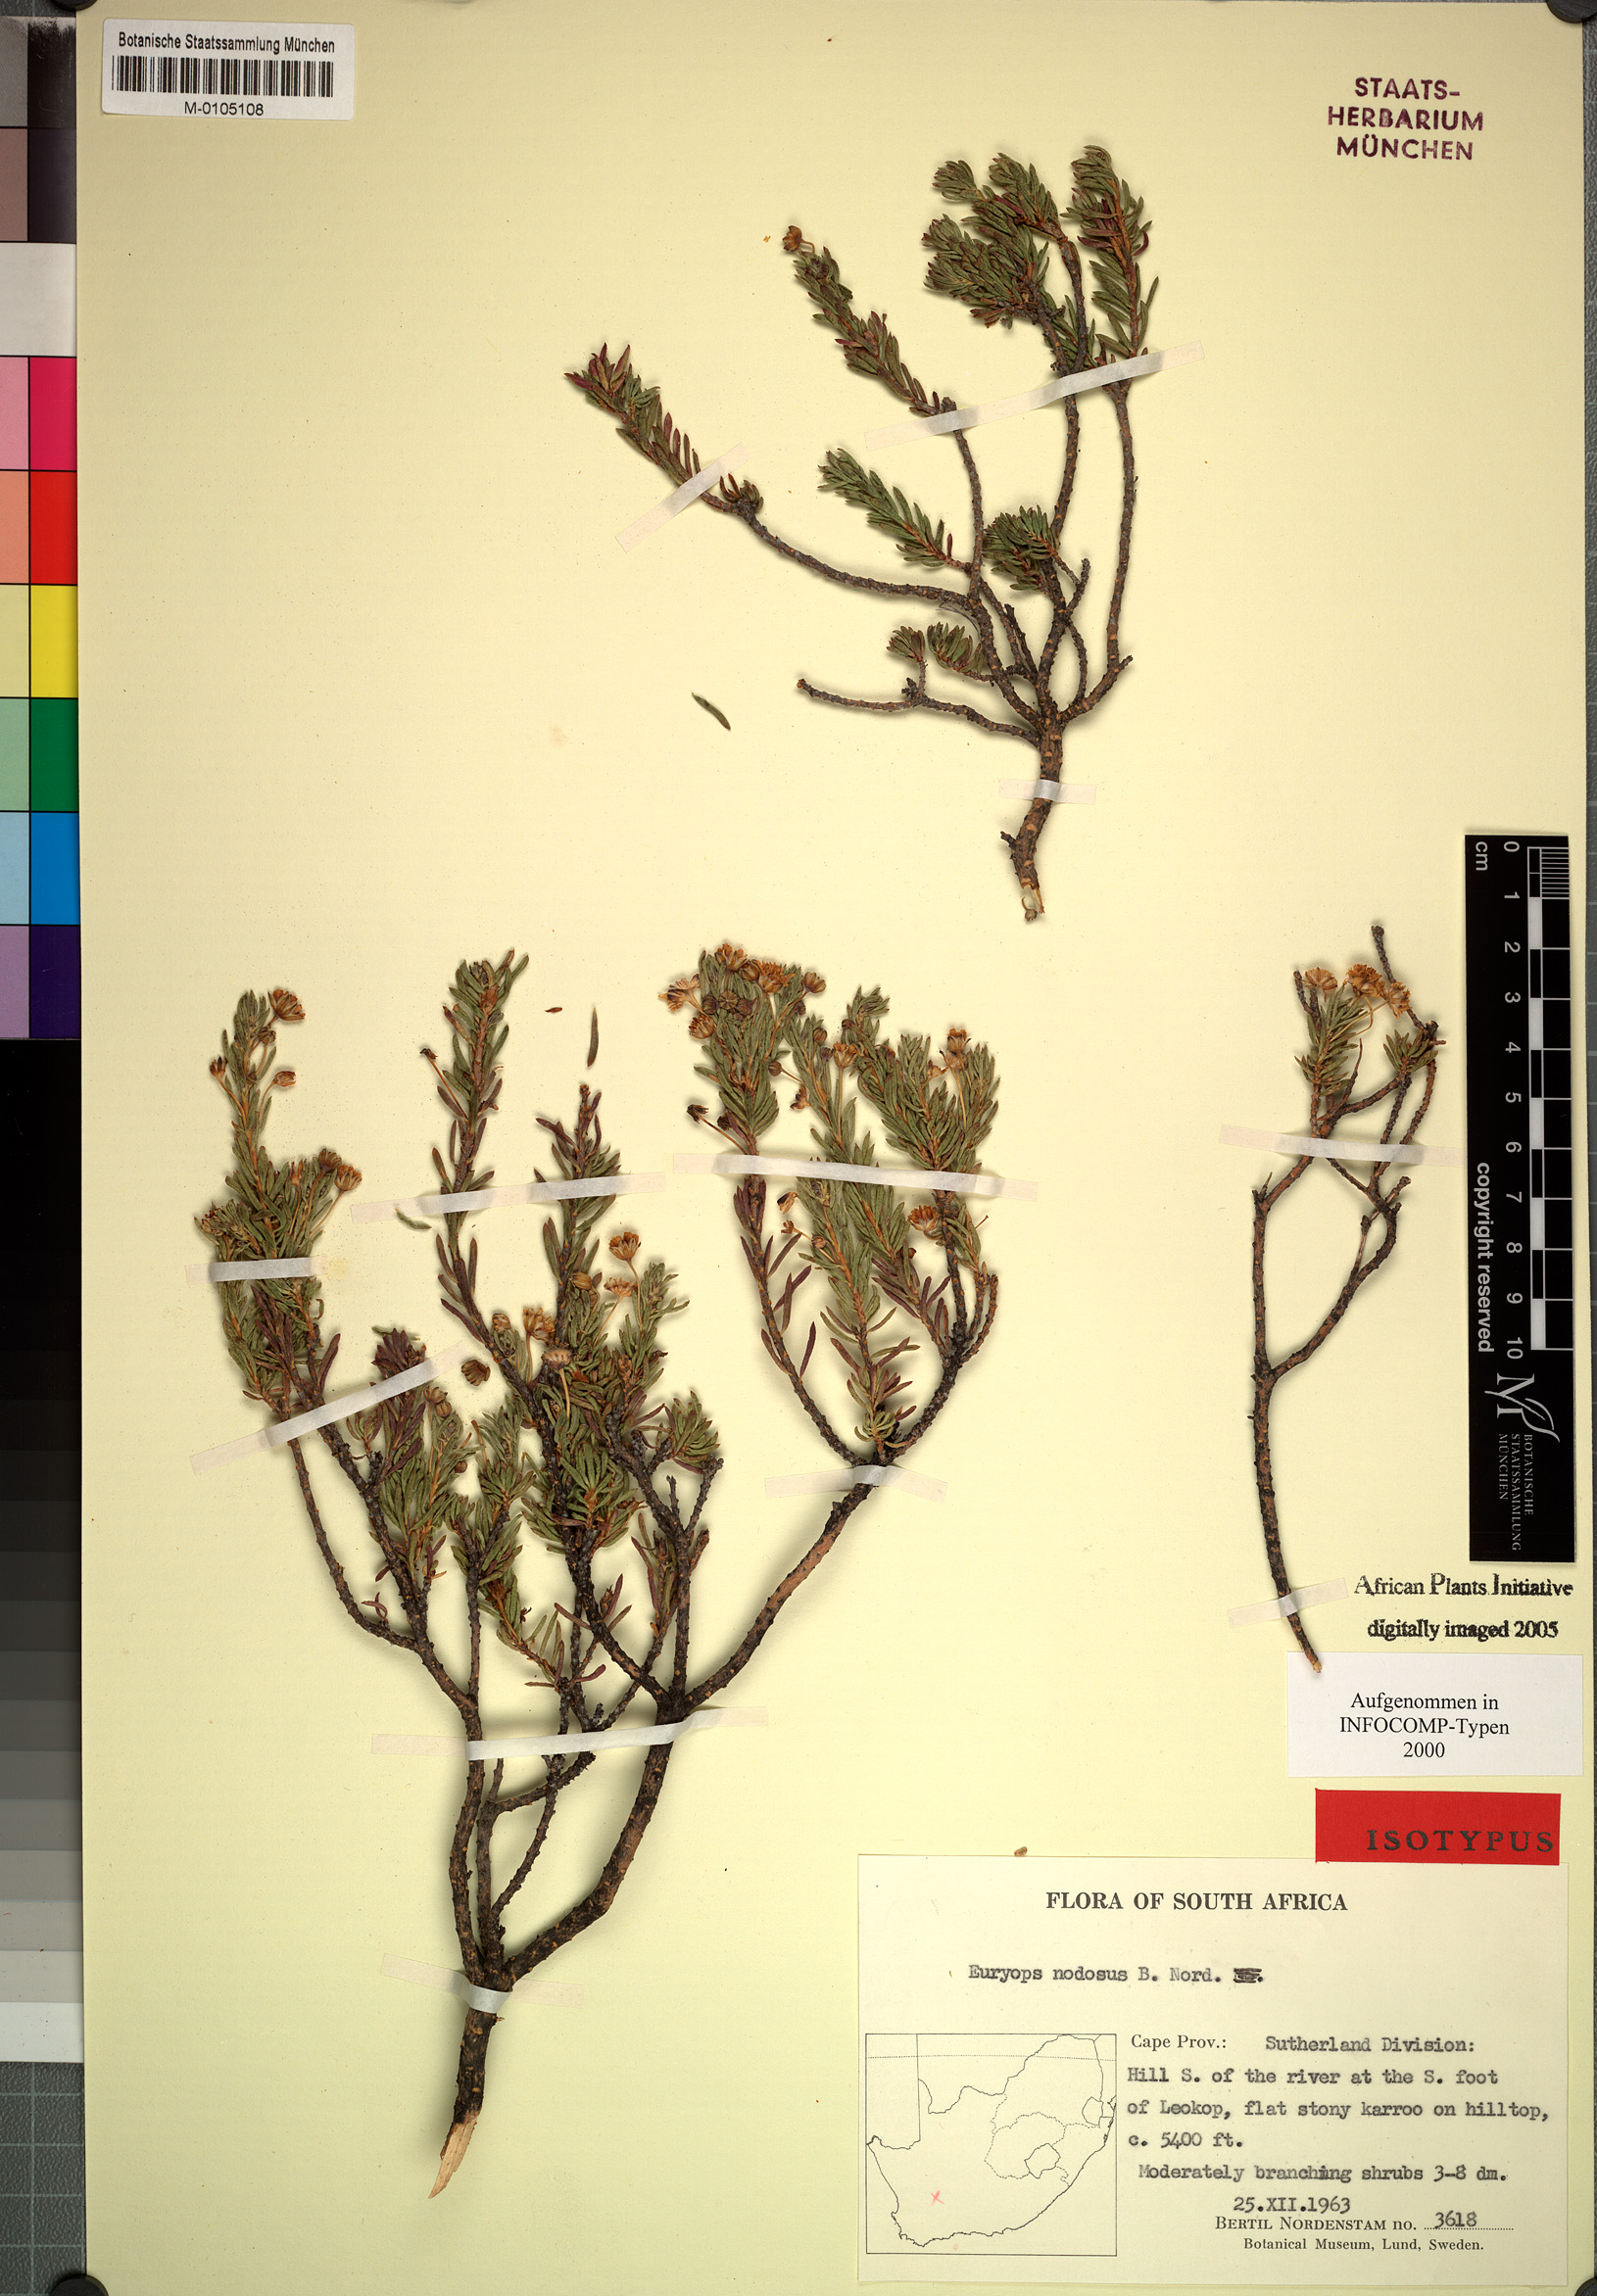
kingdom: Plantae
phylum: Tracheophyta
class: Magnoliopsida
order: Asterales
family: Asteraceae
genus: Euryops
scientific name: Euryops nodosus
